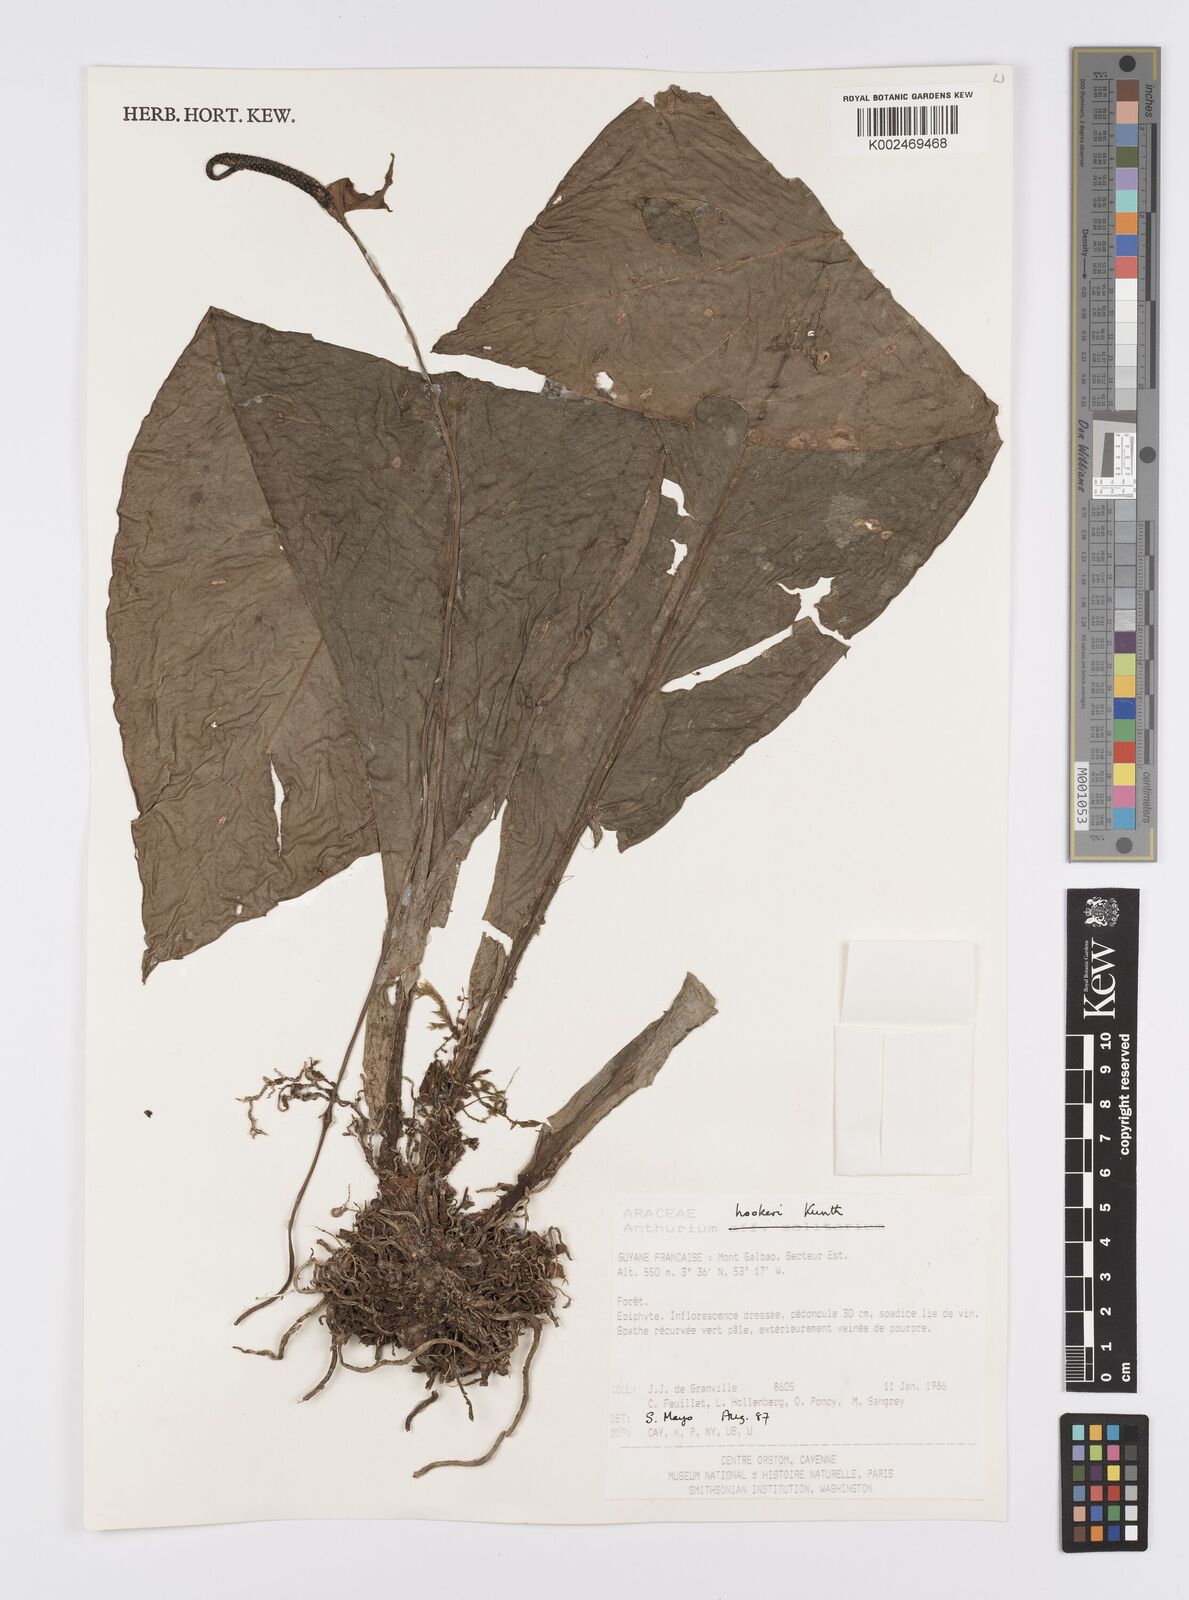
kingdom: Plantae
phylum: Tracheophyta
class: Liliopsida
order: Alismatales
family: Araceae
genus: Anthurium
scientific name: Anthurium hookeri
